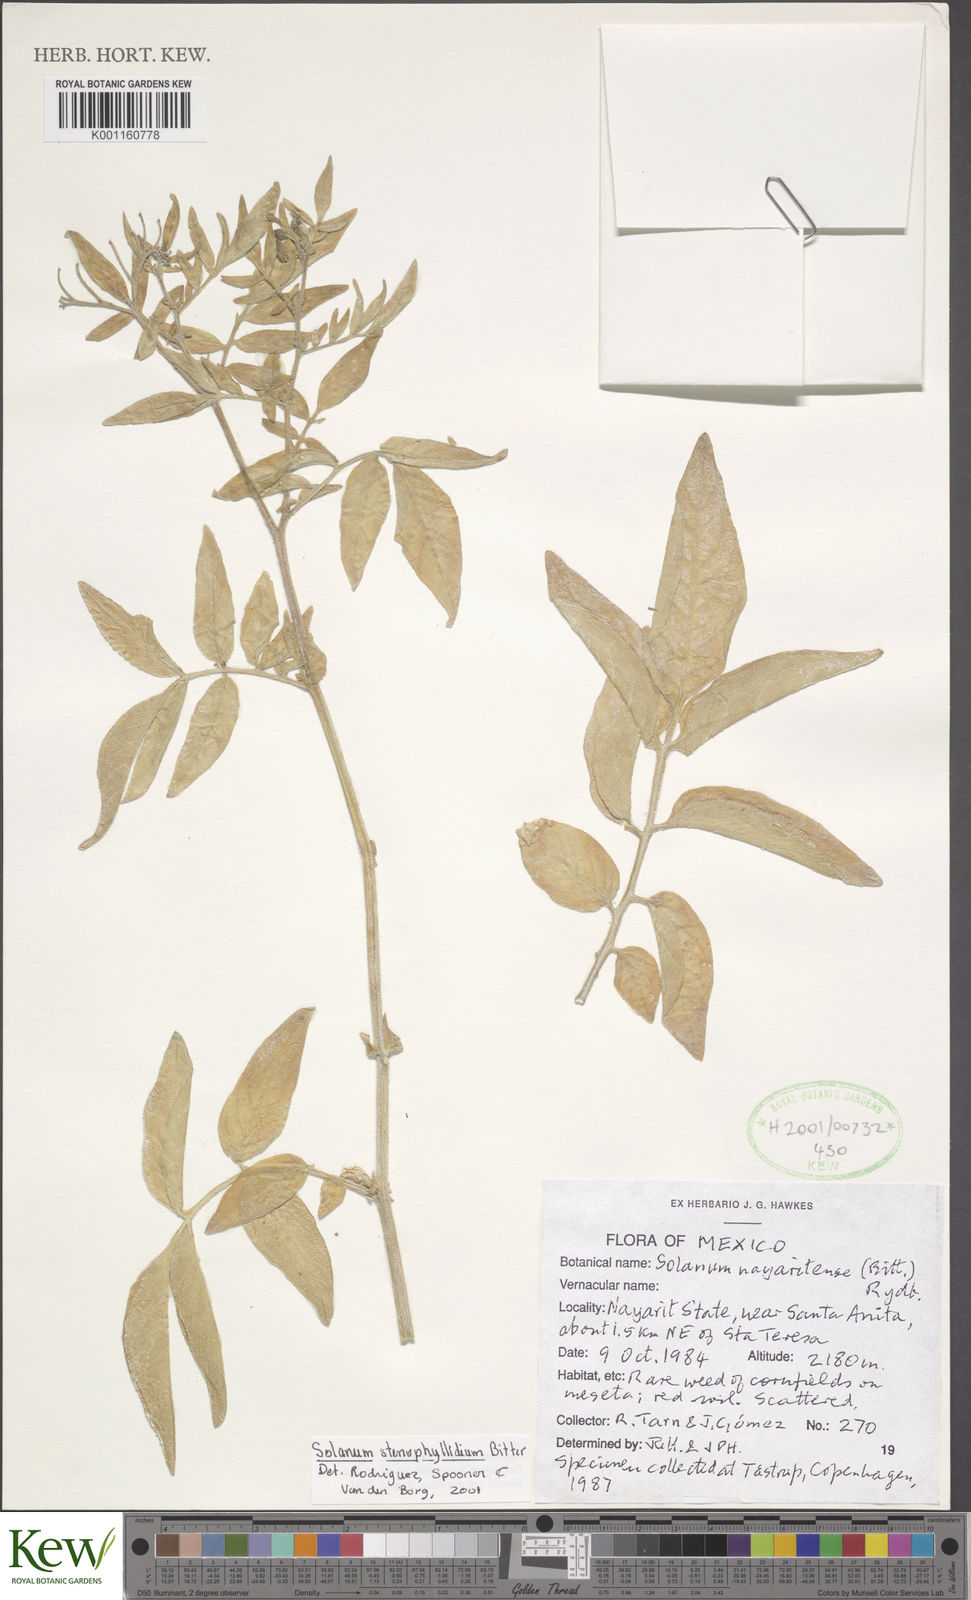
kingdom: Plantae
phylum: Tracheophyta
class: Magnoliopsida
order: Solanales
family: Solanaceae
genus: Solanum
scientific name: Solanum stenophyllidium
